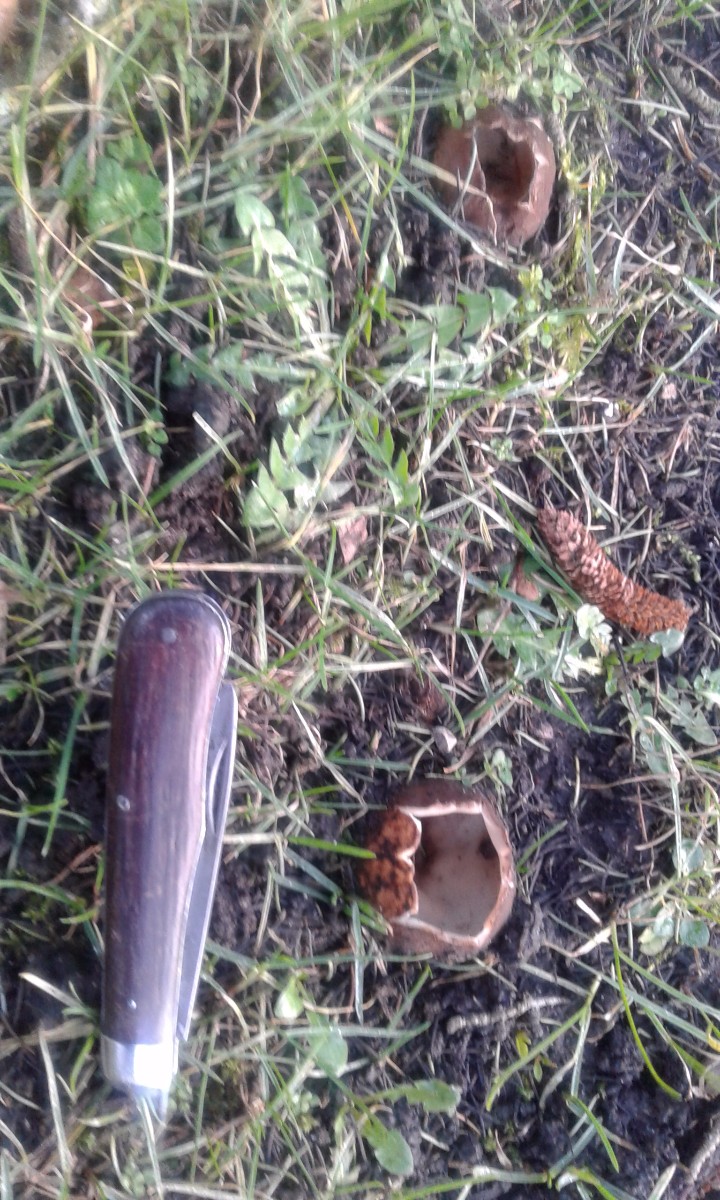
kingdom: Fungi
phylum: Ascomycota
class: Pezizomycetes
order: Pezizales
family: Pyronemataceae
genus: Geopora
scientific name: Geopora sumneriana
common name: vår-jordbæger
